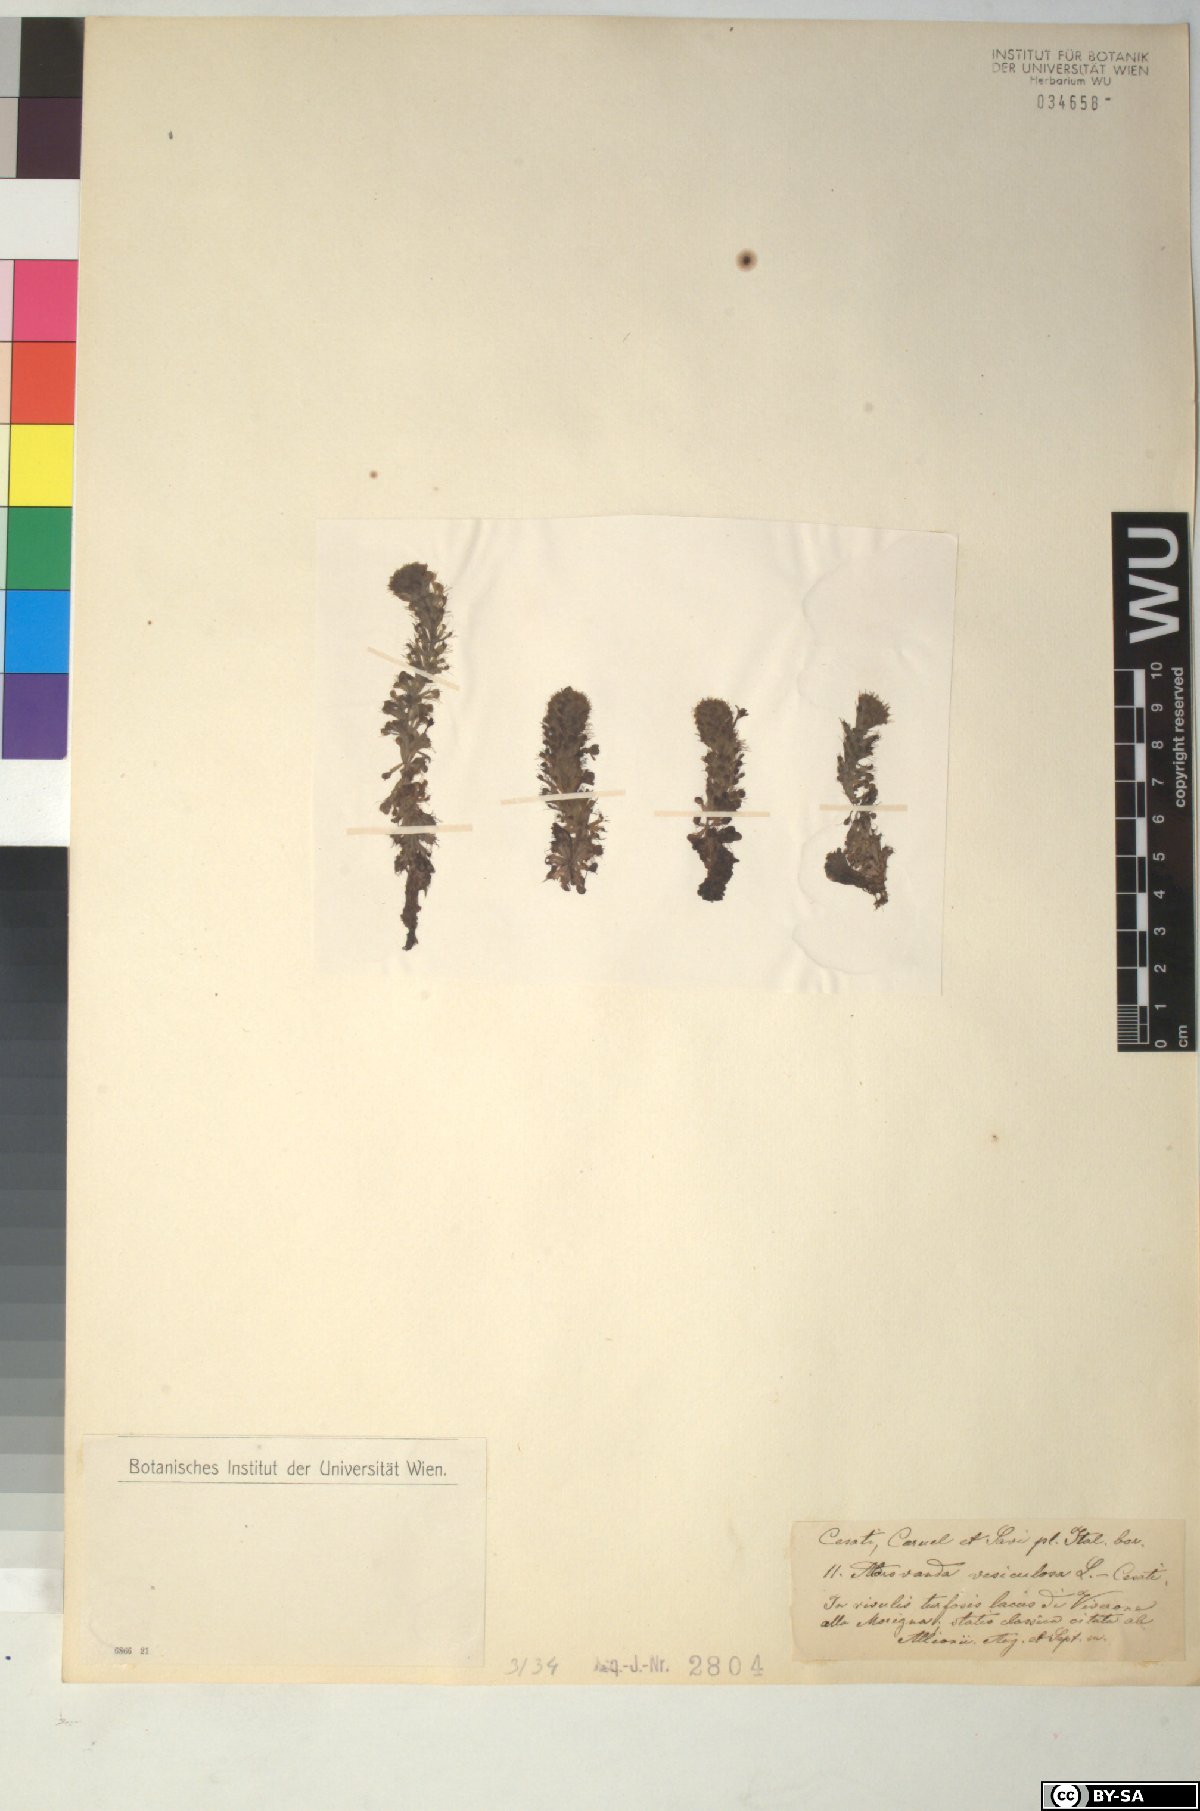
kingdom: Plantae
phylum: Tracheophyta
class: Magnoliopsida
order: Caryophyllales
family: Droseraceae
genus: Aldrovanda
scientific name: Aldrovanda vesiculosa
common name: Waterwheel plant
